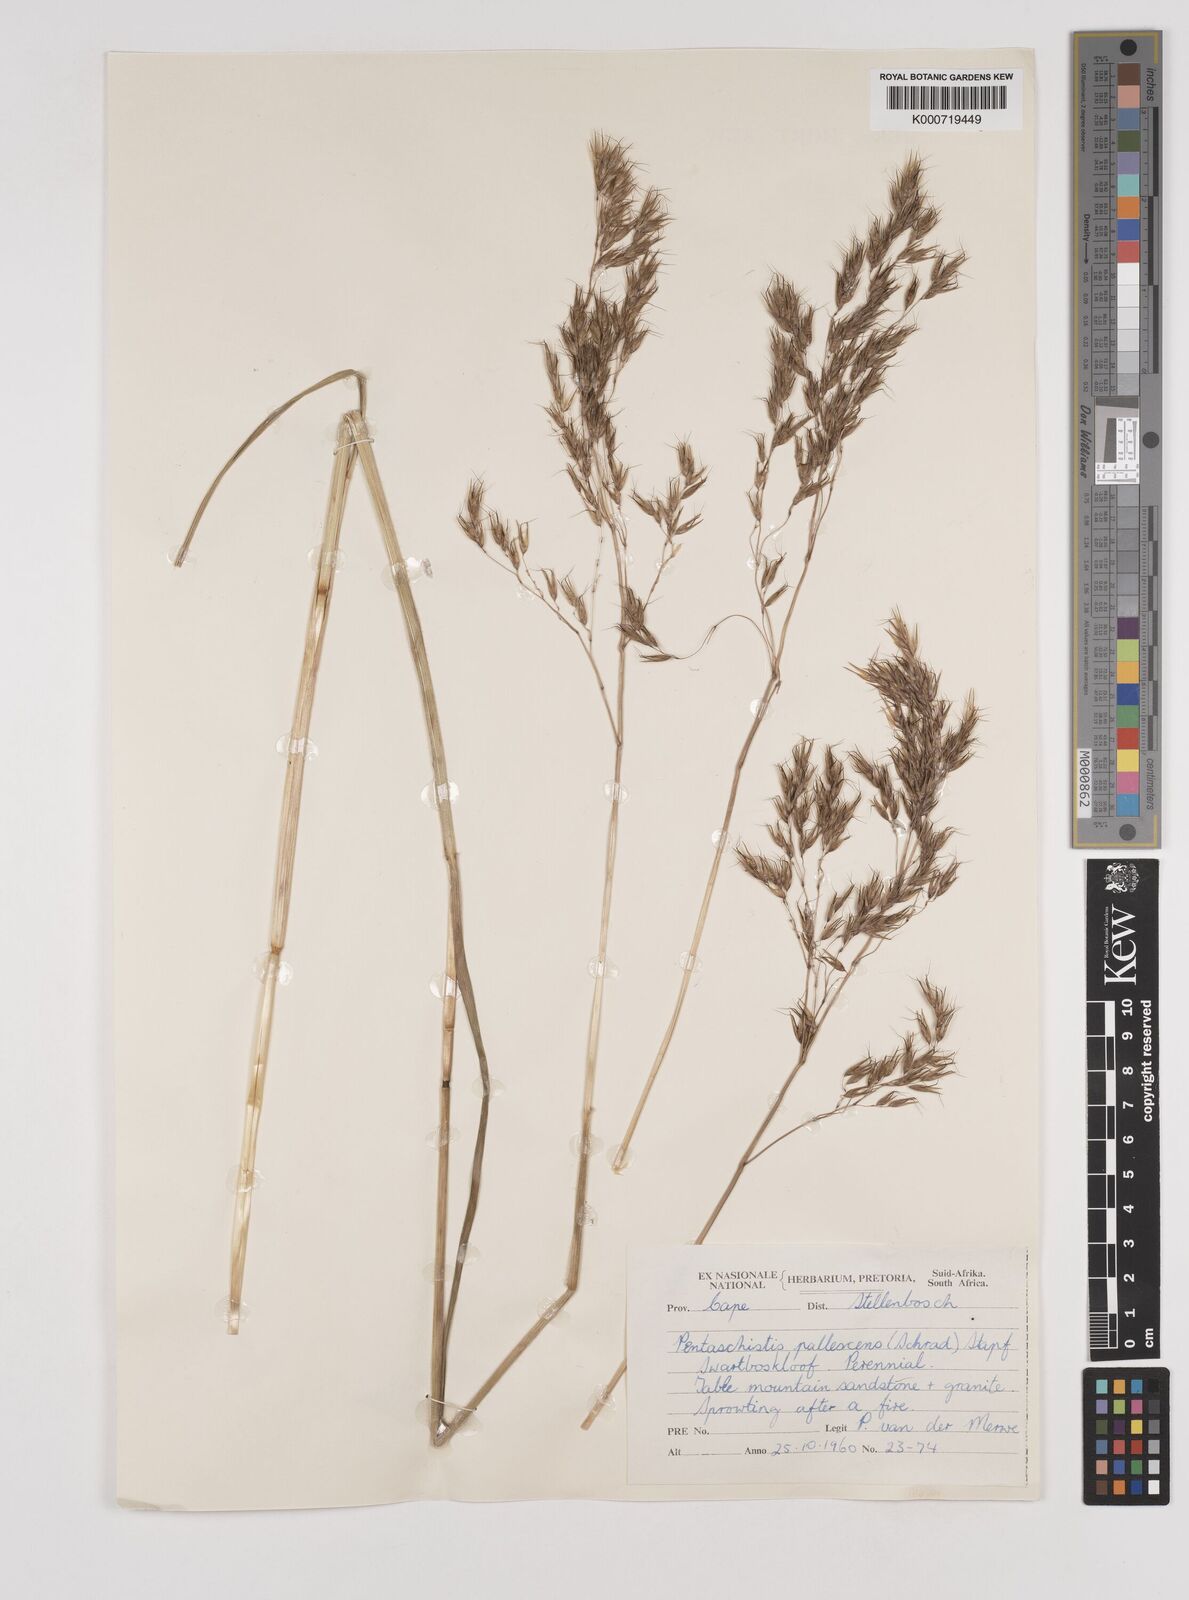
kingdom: Plantae
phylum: Tracheophyta
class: Liliopsida
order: Poales
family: Poaceae
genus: Pentameris
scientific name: Pentameris pallescens
